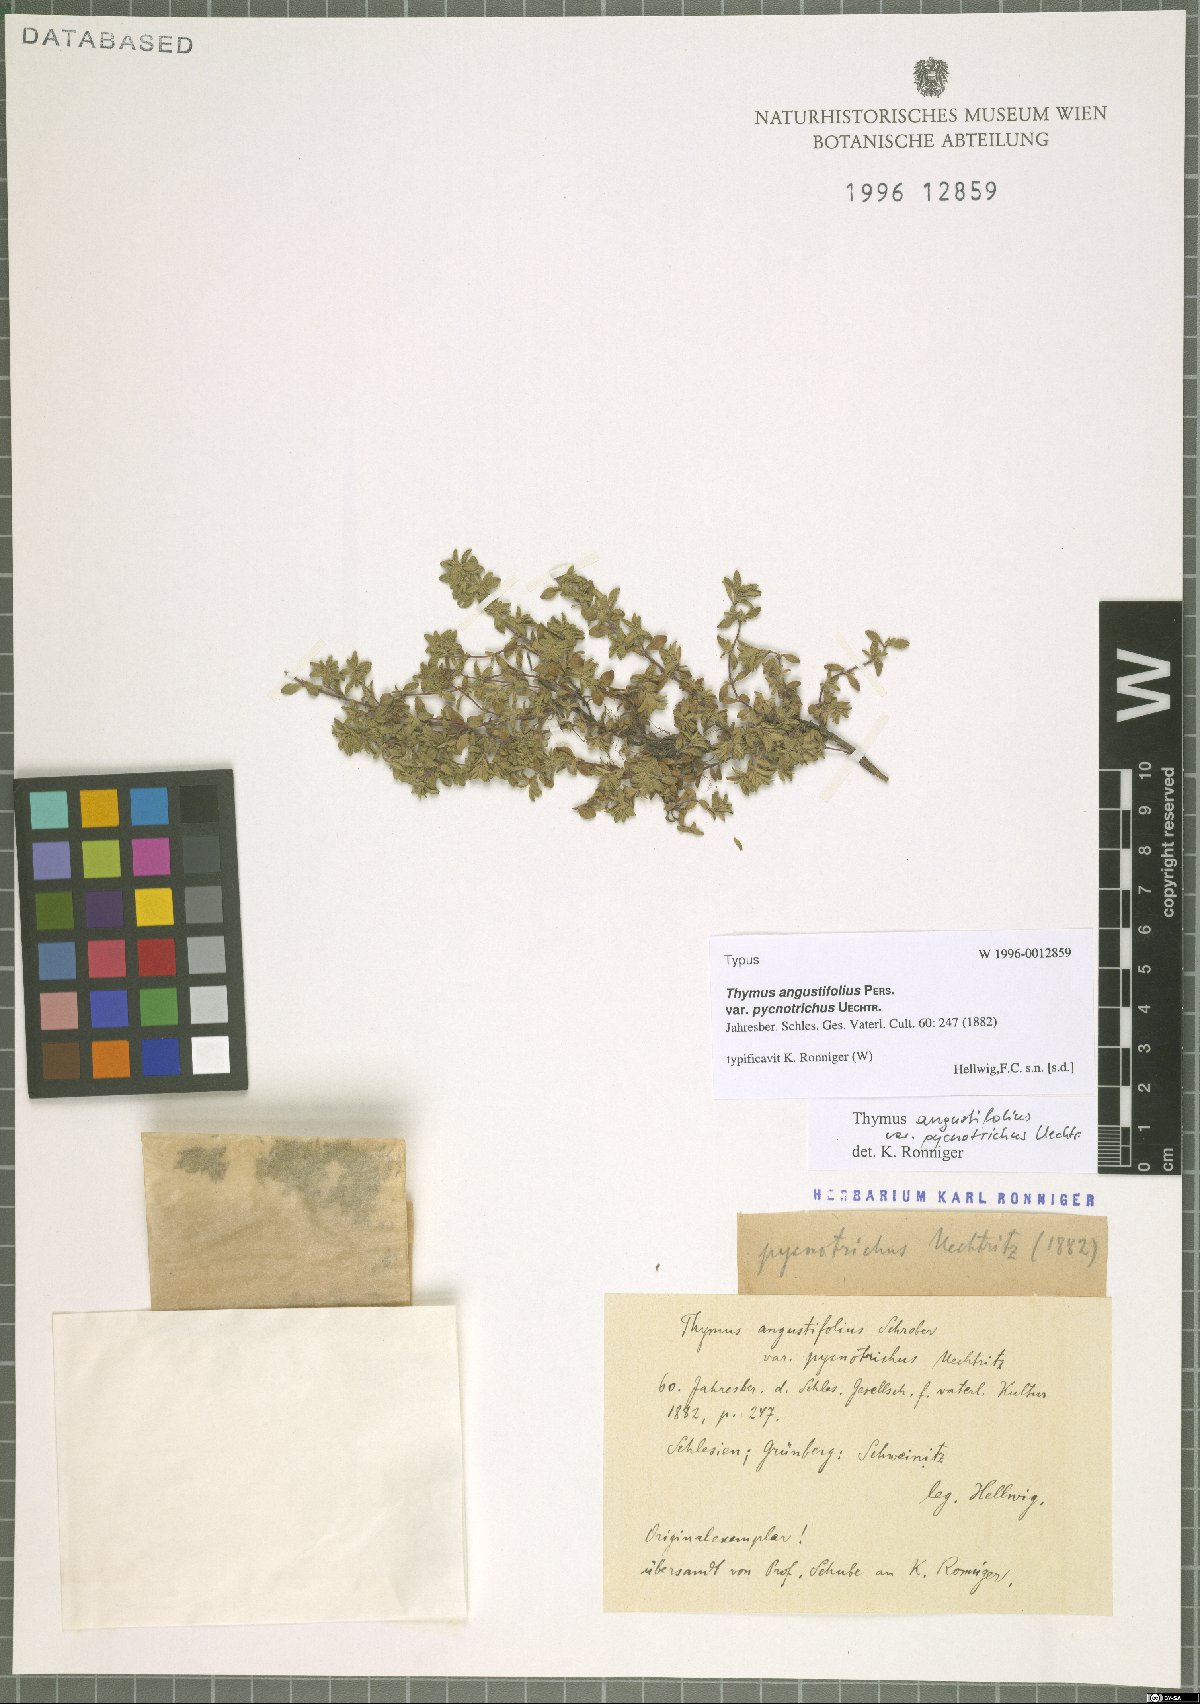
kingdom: Plantae
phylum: Tracheophyta
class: Magnoliopsida
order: Lamiales
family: Lamiaceae
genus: Thymus
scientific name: Thymus serpyllum
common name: Breckland thyme
